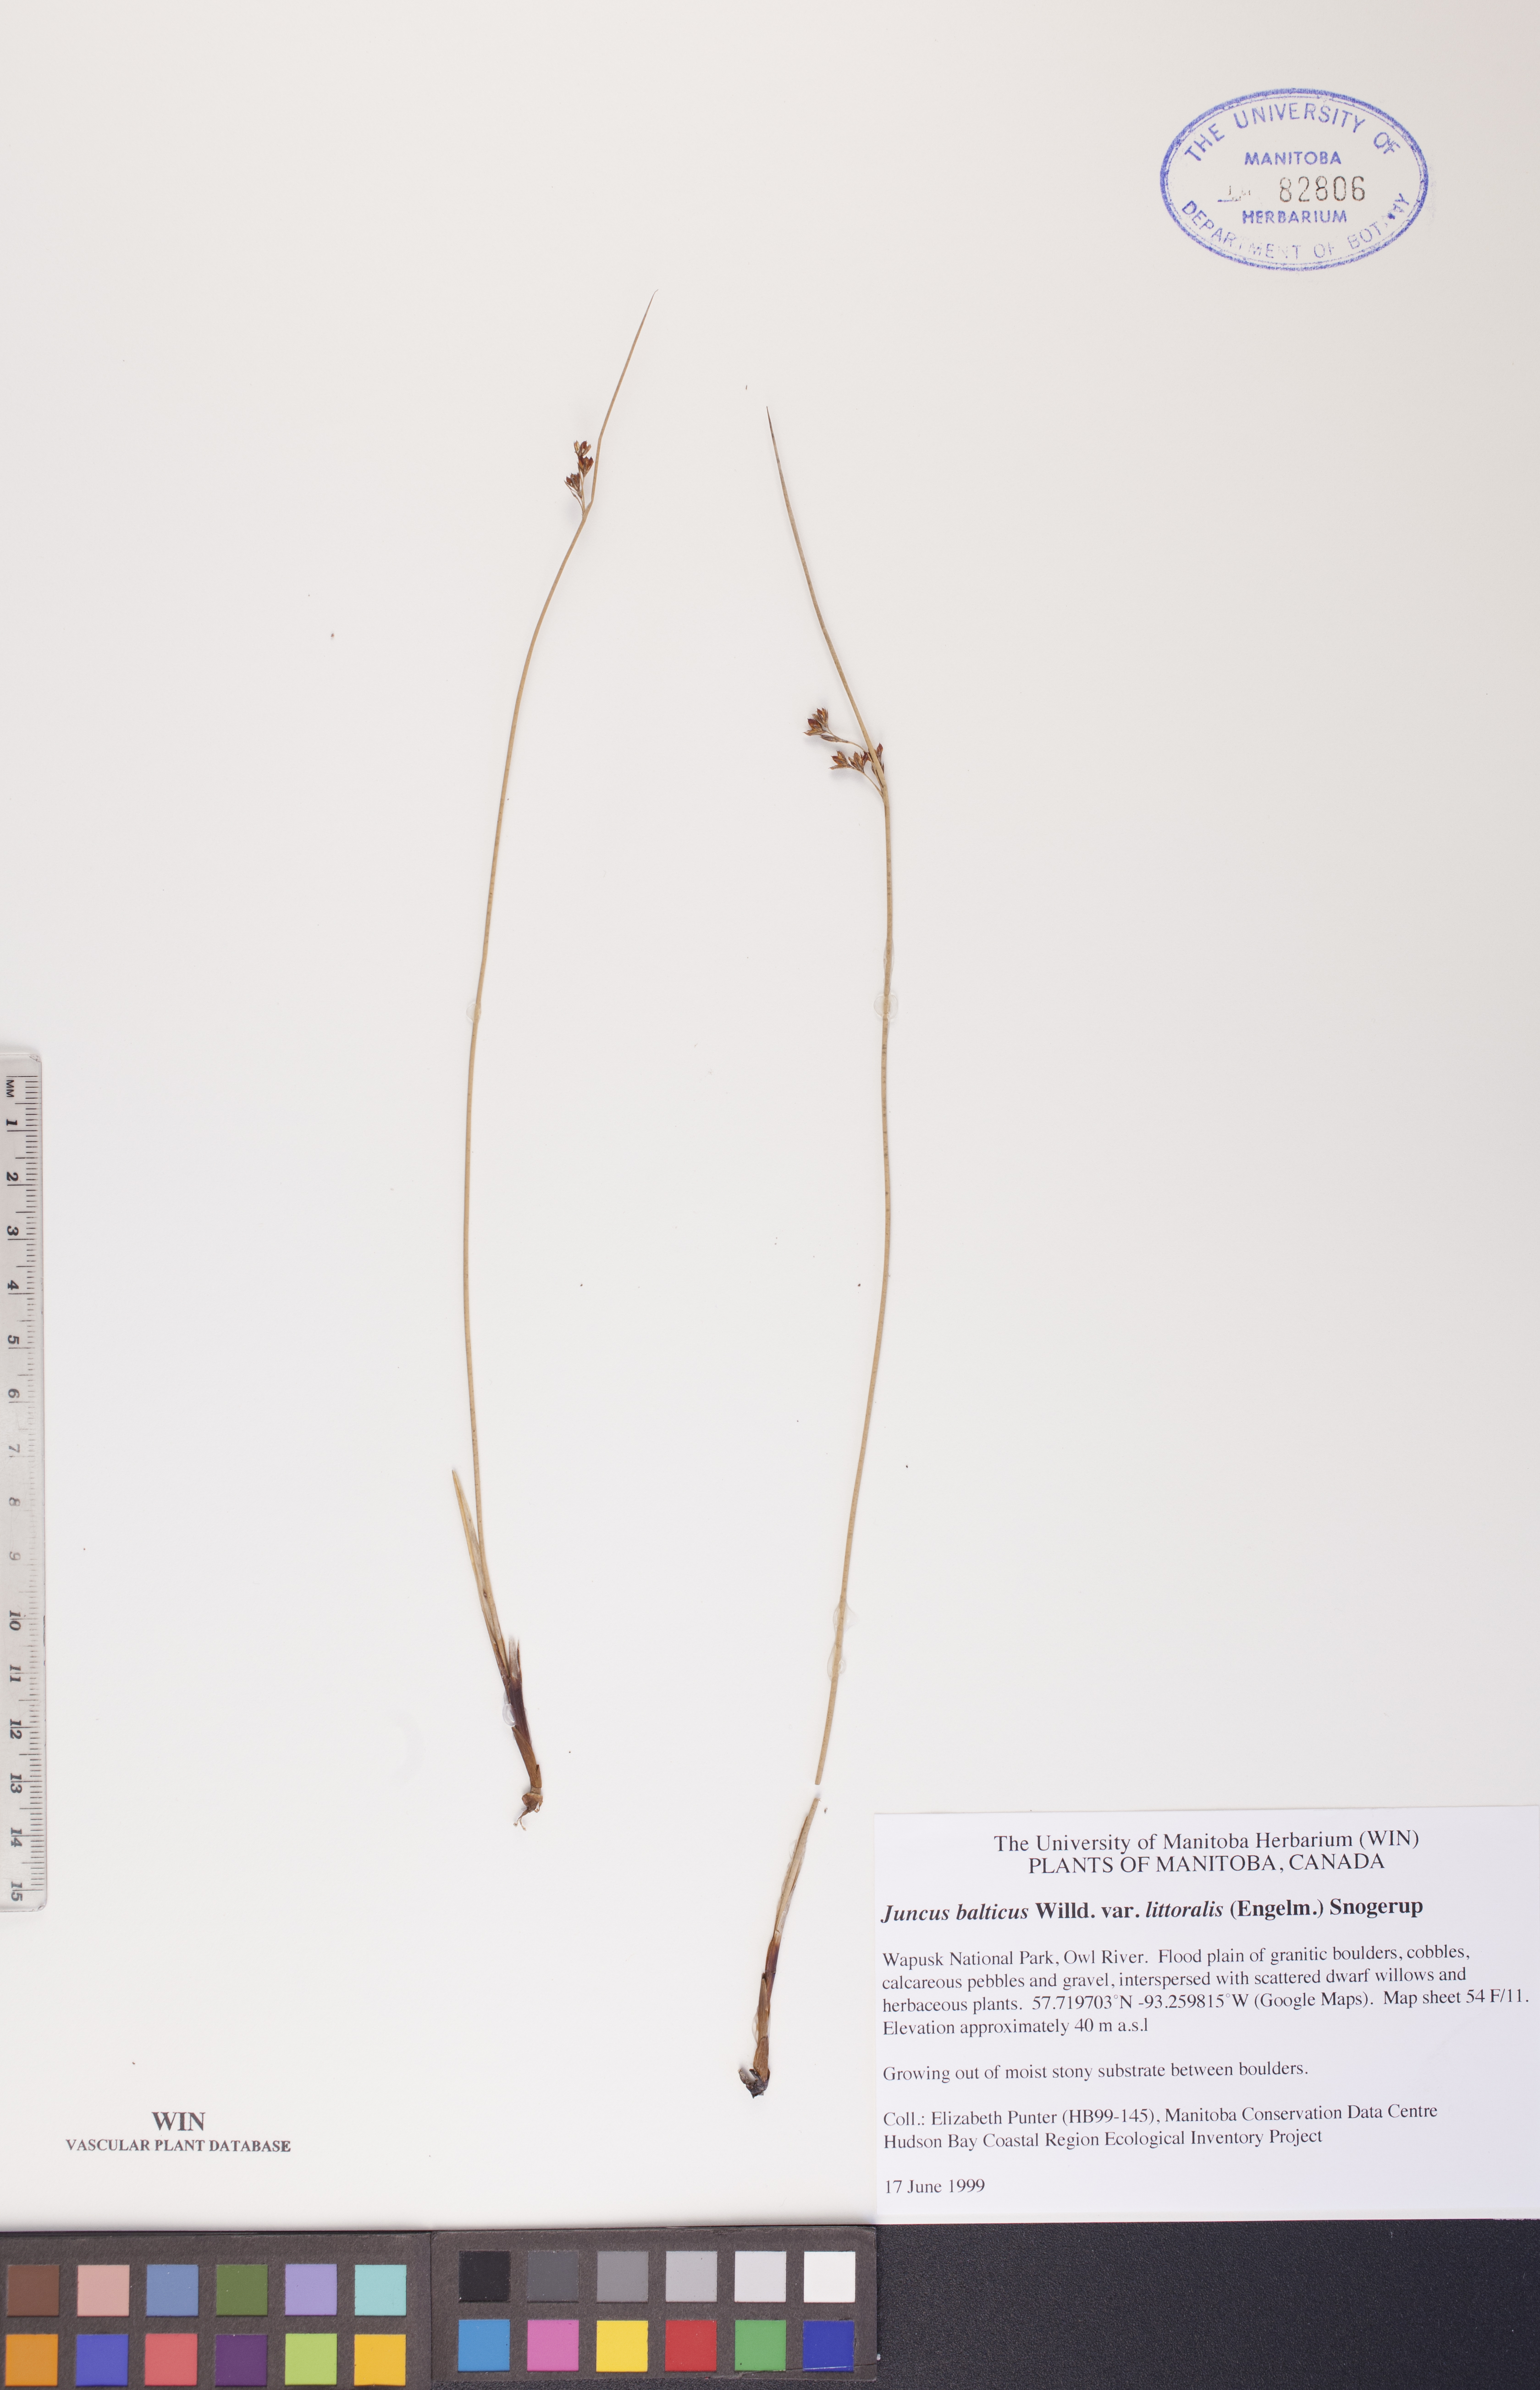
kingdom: Plantae
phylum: Tracheophyta
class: Liliopsida
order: Poales
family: Juncaceae
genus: Juncus
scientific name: Juncus balticus
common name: Baltic rush
